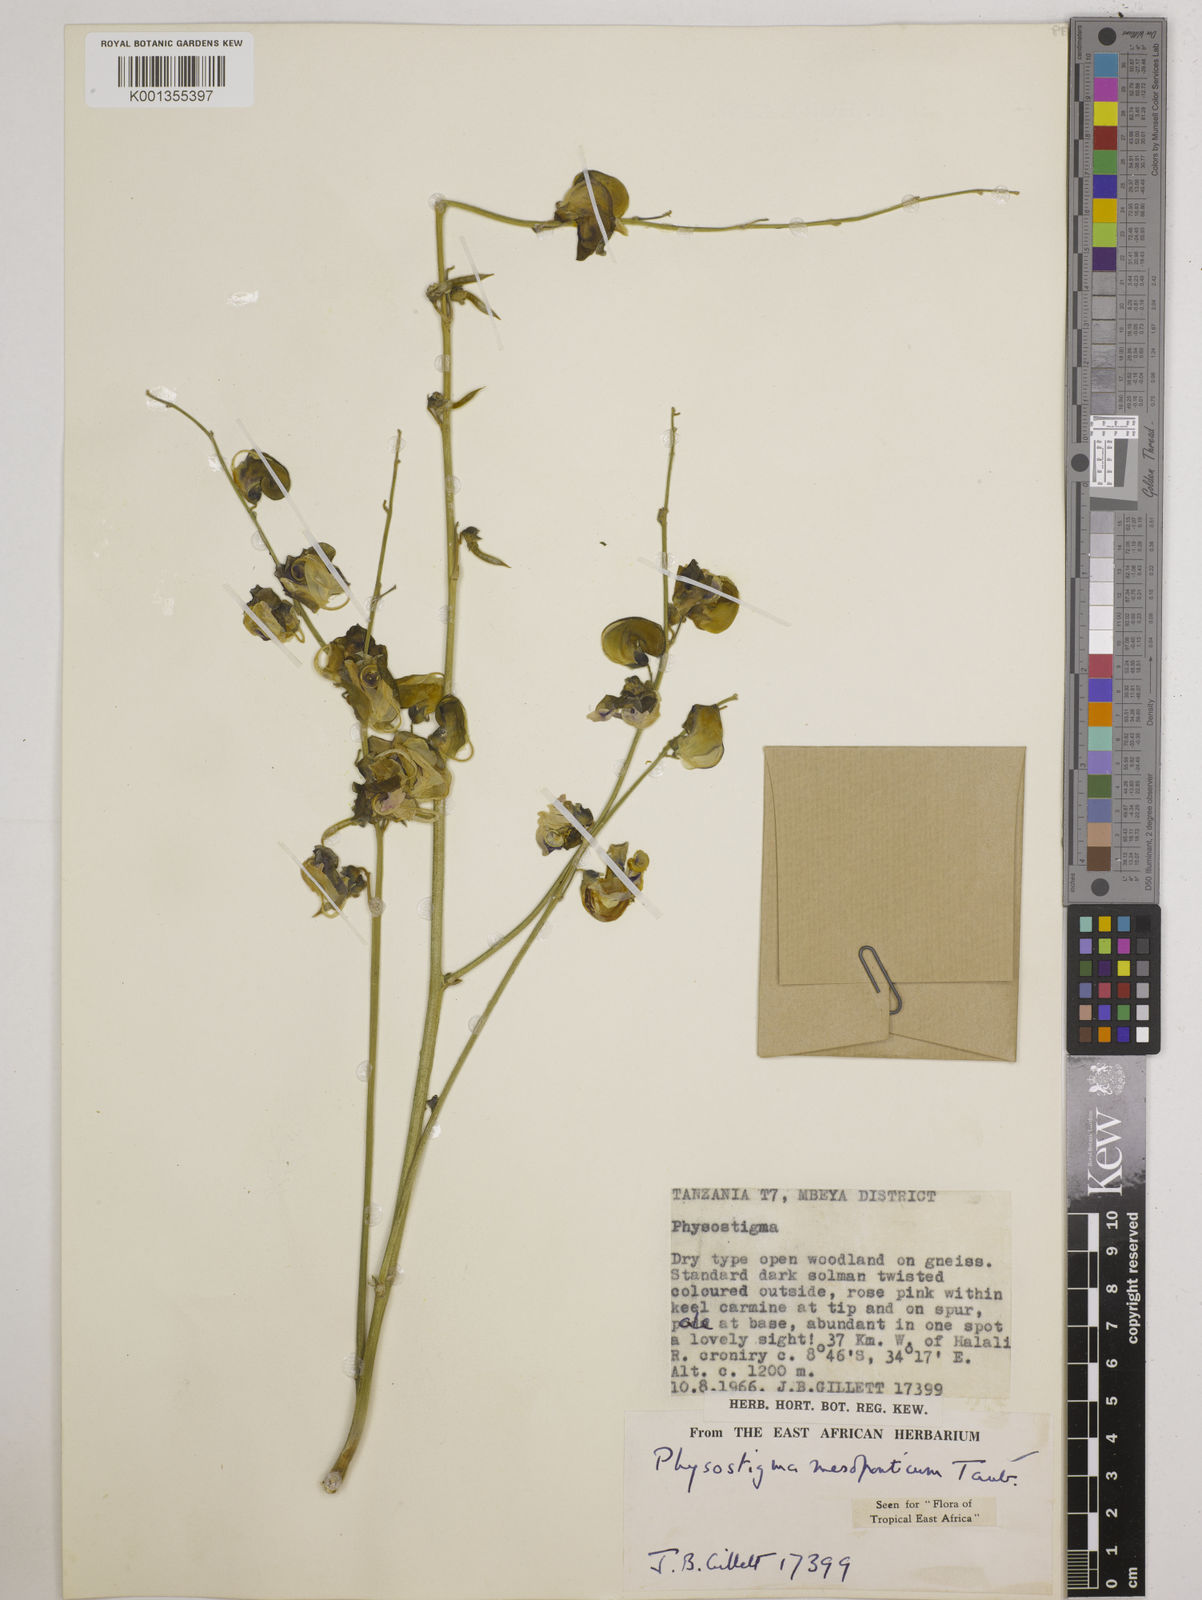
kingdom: Plantae
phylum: Tracheophyta
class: Magnoliopsida
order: Fabales
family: Fabaceae
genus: Physostigma
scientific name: Physostigma mesoponticum
